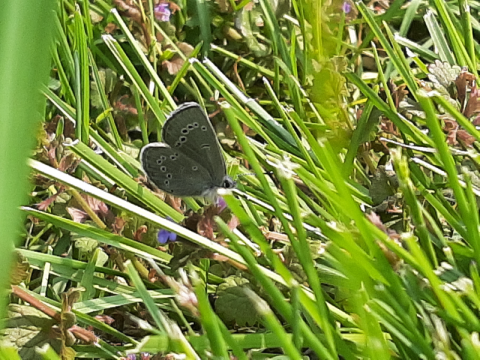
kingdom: Animalia
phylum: Arthropoda
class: Insecta
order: Lepidoptera
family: Lycaenidae
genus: Glaucopsyche
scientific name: Glaucopsyche lygdamus
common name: Silvery Blue
